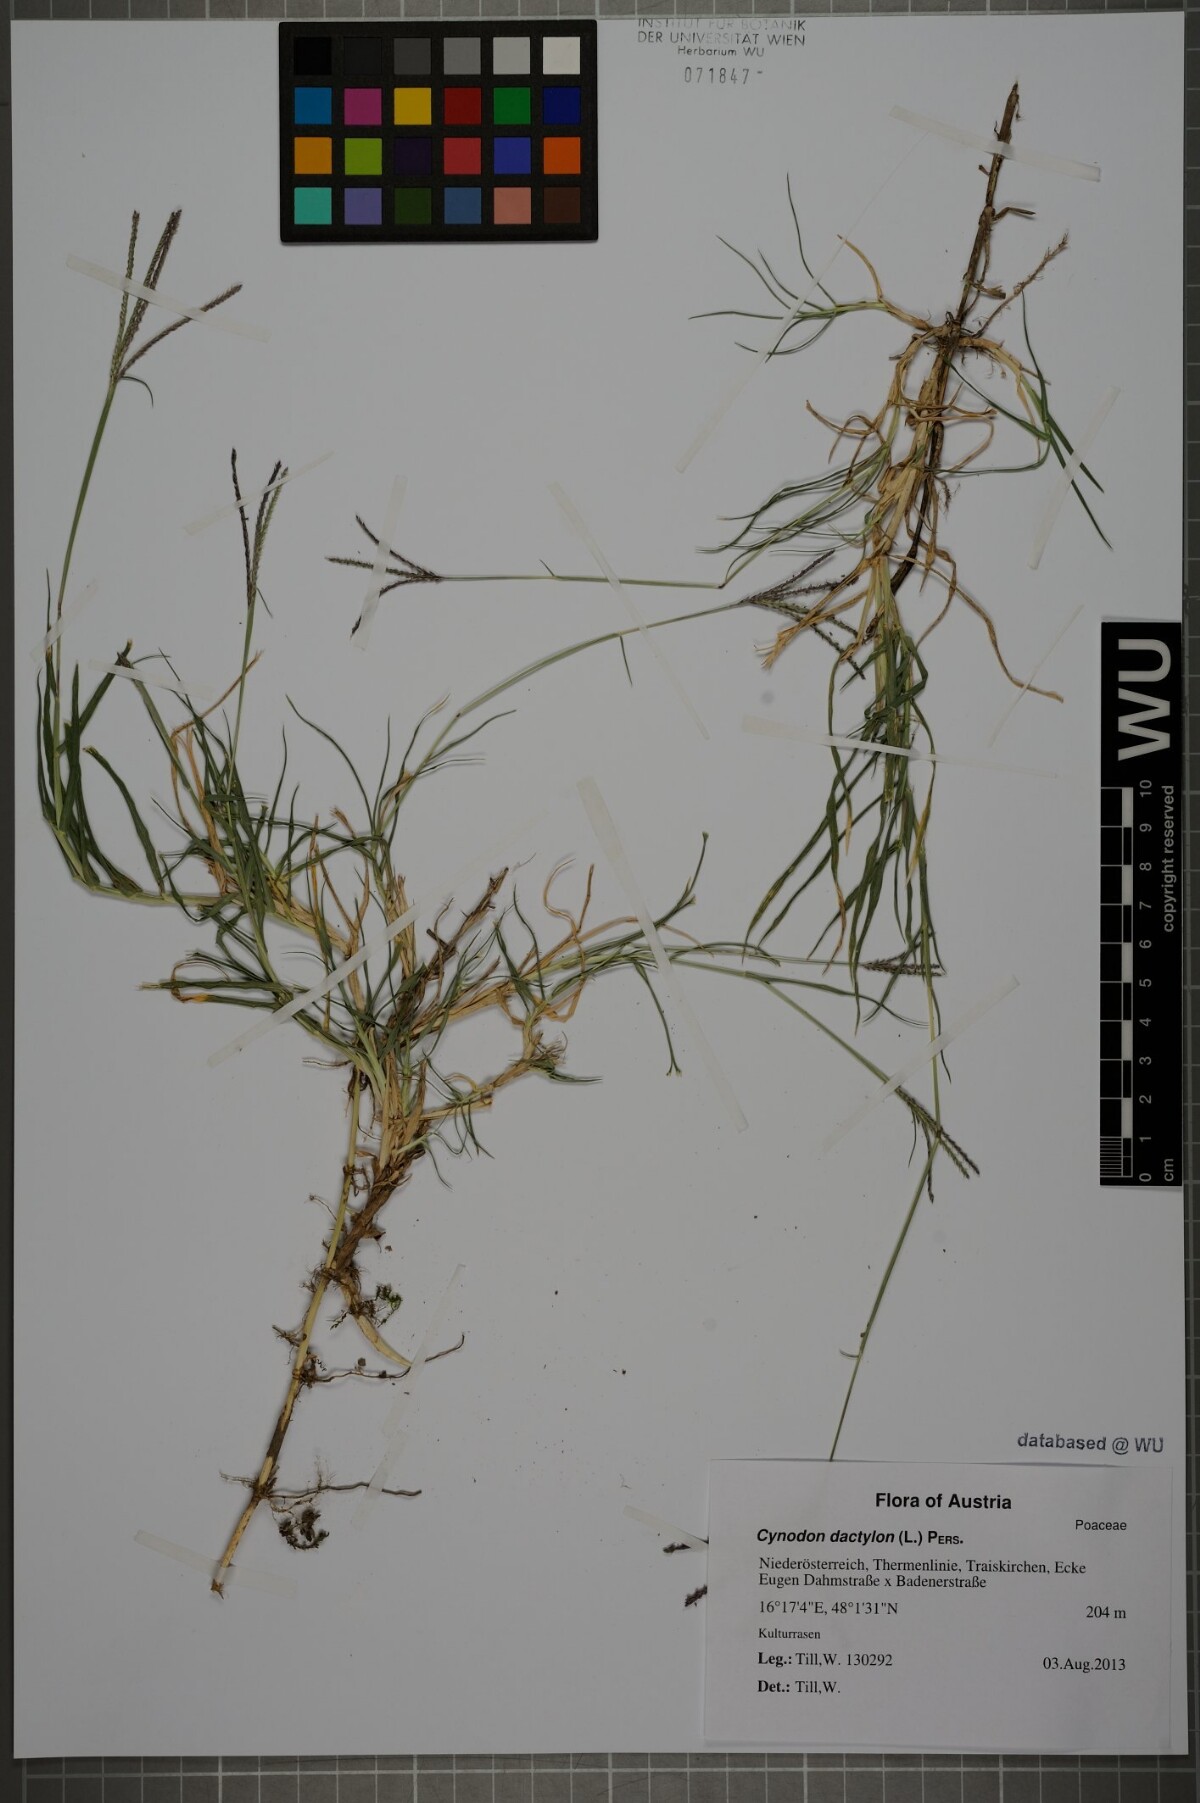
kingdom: Plantae
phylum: Tracheophyta
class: Liliopsida
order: Poales
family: Poaceae
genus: Cynodon
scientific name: Cynodon dactylon
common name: Bermuda grass
